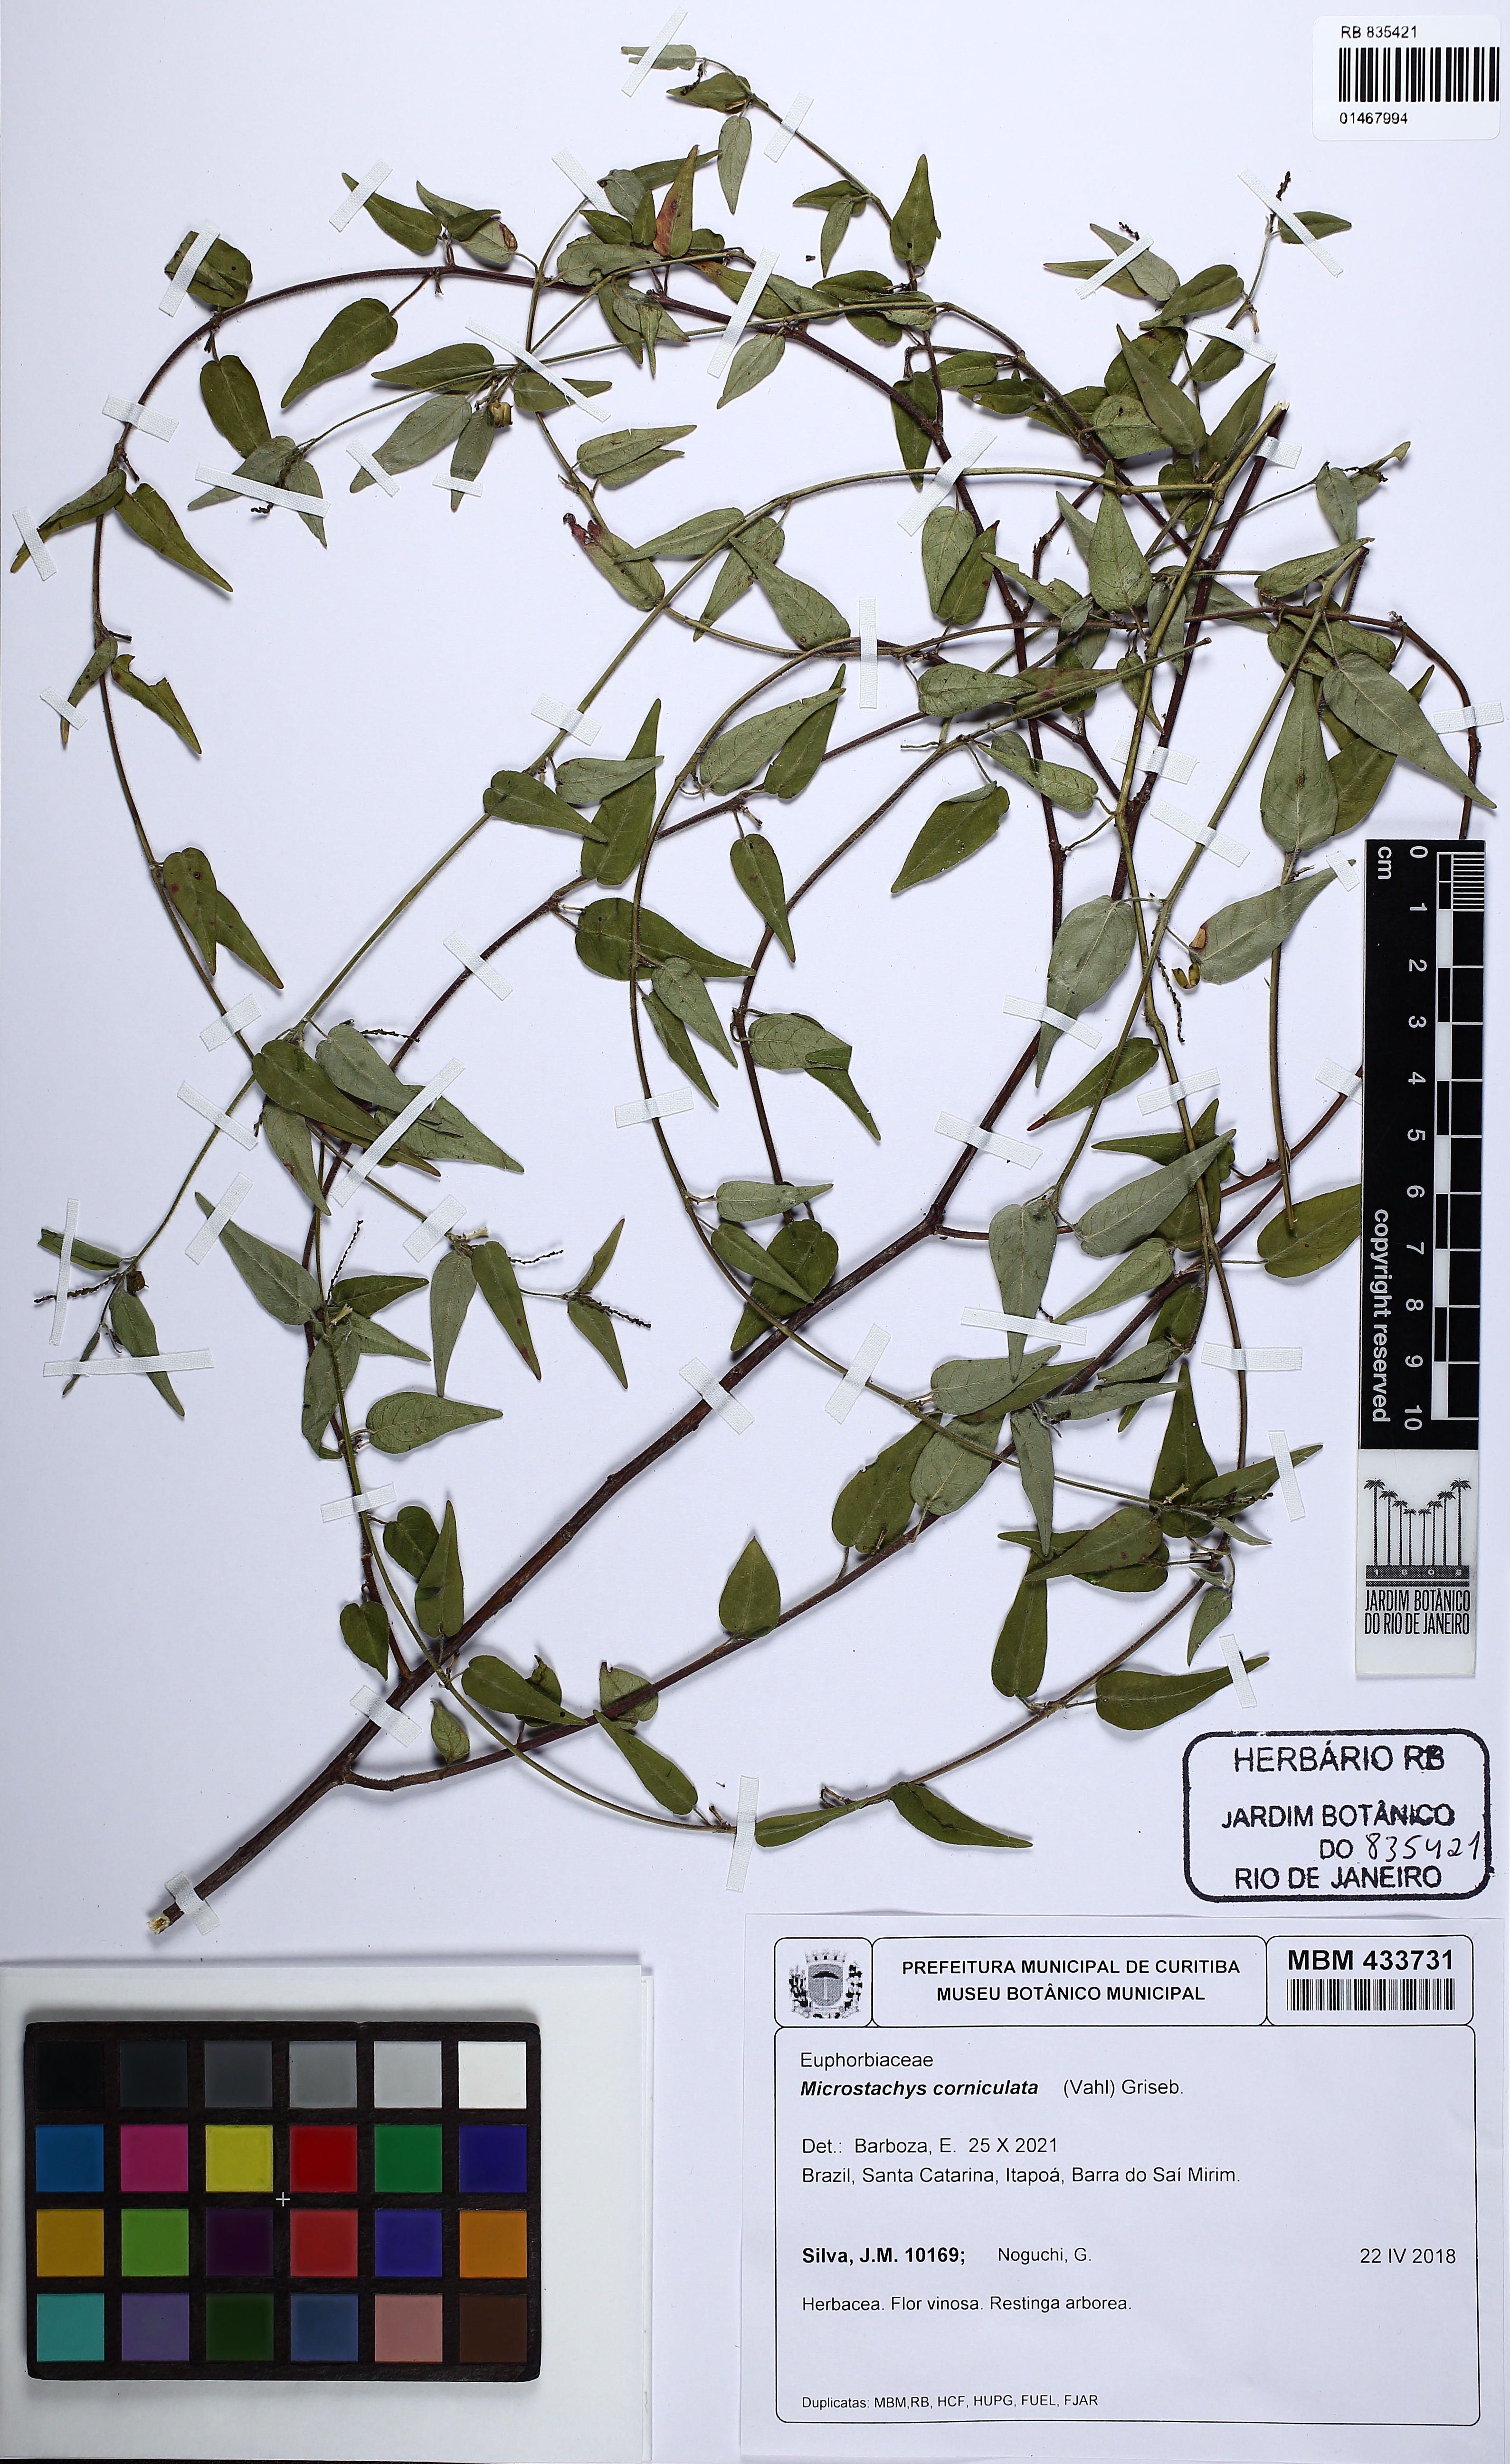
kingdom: Plantae
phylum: Tracheophyta
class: Magnoliopsida
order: Malpighiales
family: Euphorbiaceae
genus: Microstachys
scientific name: Microstachys corniculata
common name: Hato tejas
